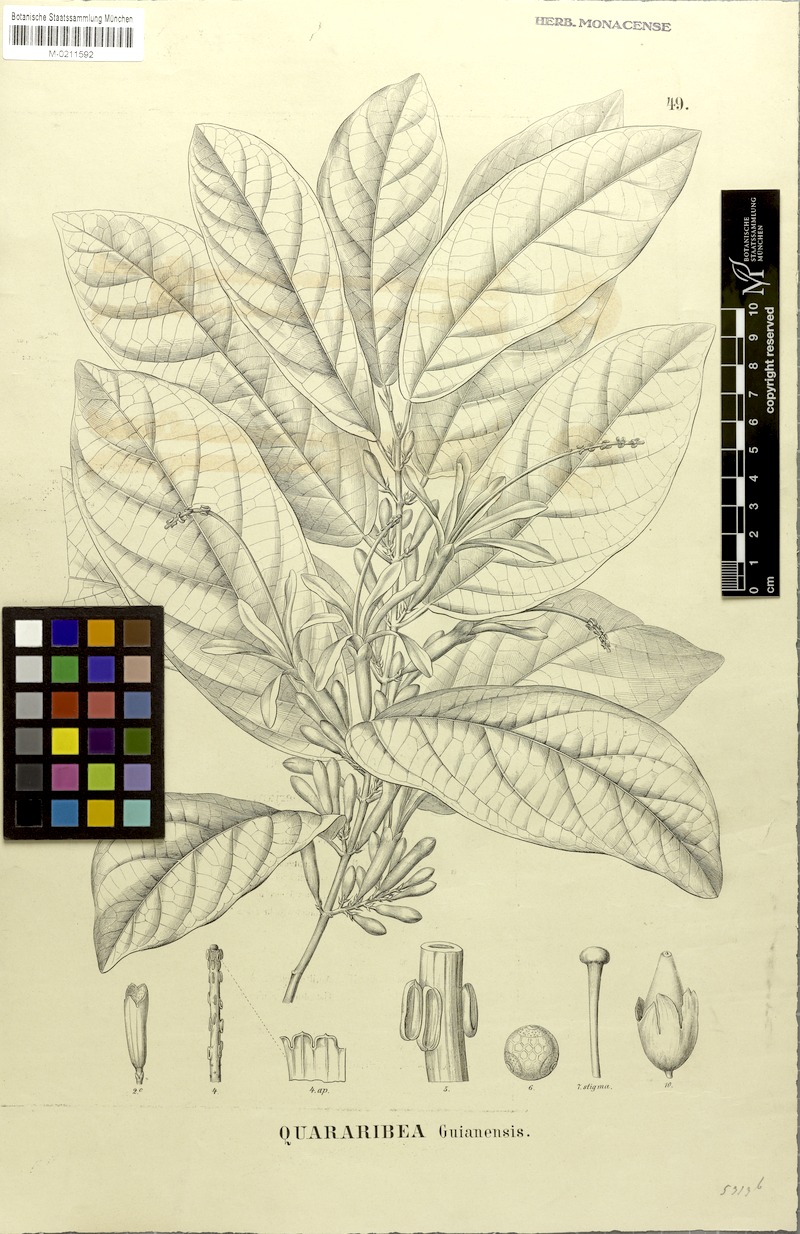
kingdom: Plantae
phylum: Tracheophyta
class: Magnoliopsida
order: Malvales
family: Malvaceae
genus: Quararibea
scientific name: Quararibea guianensis
